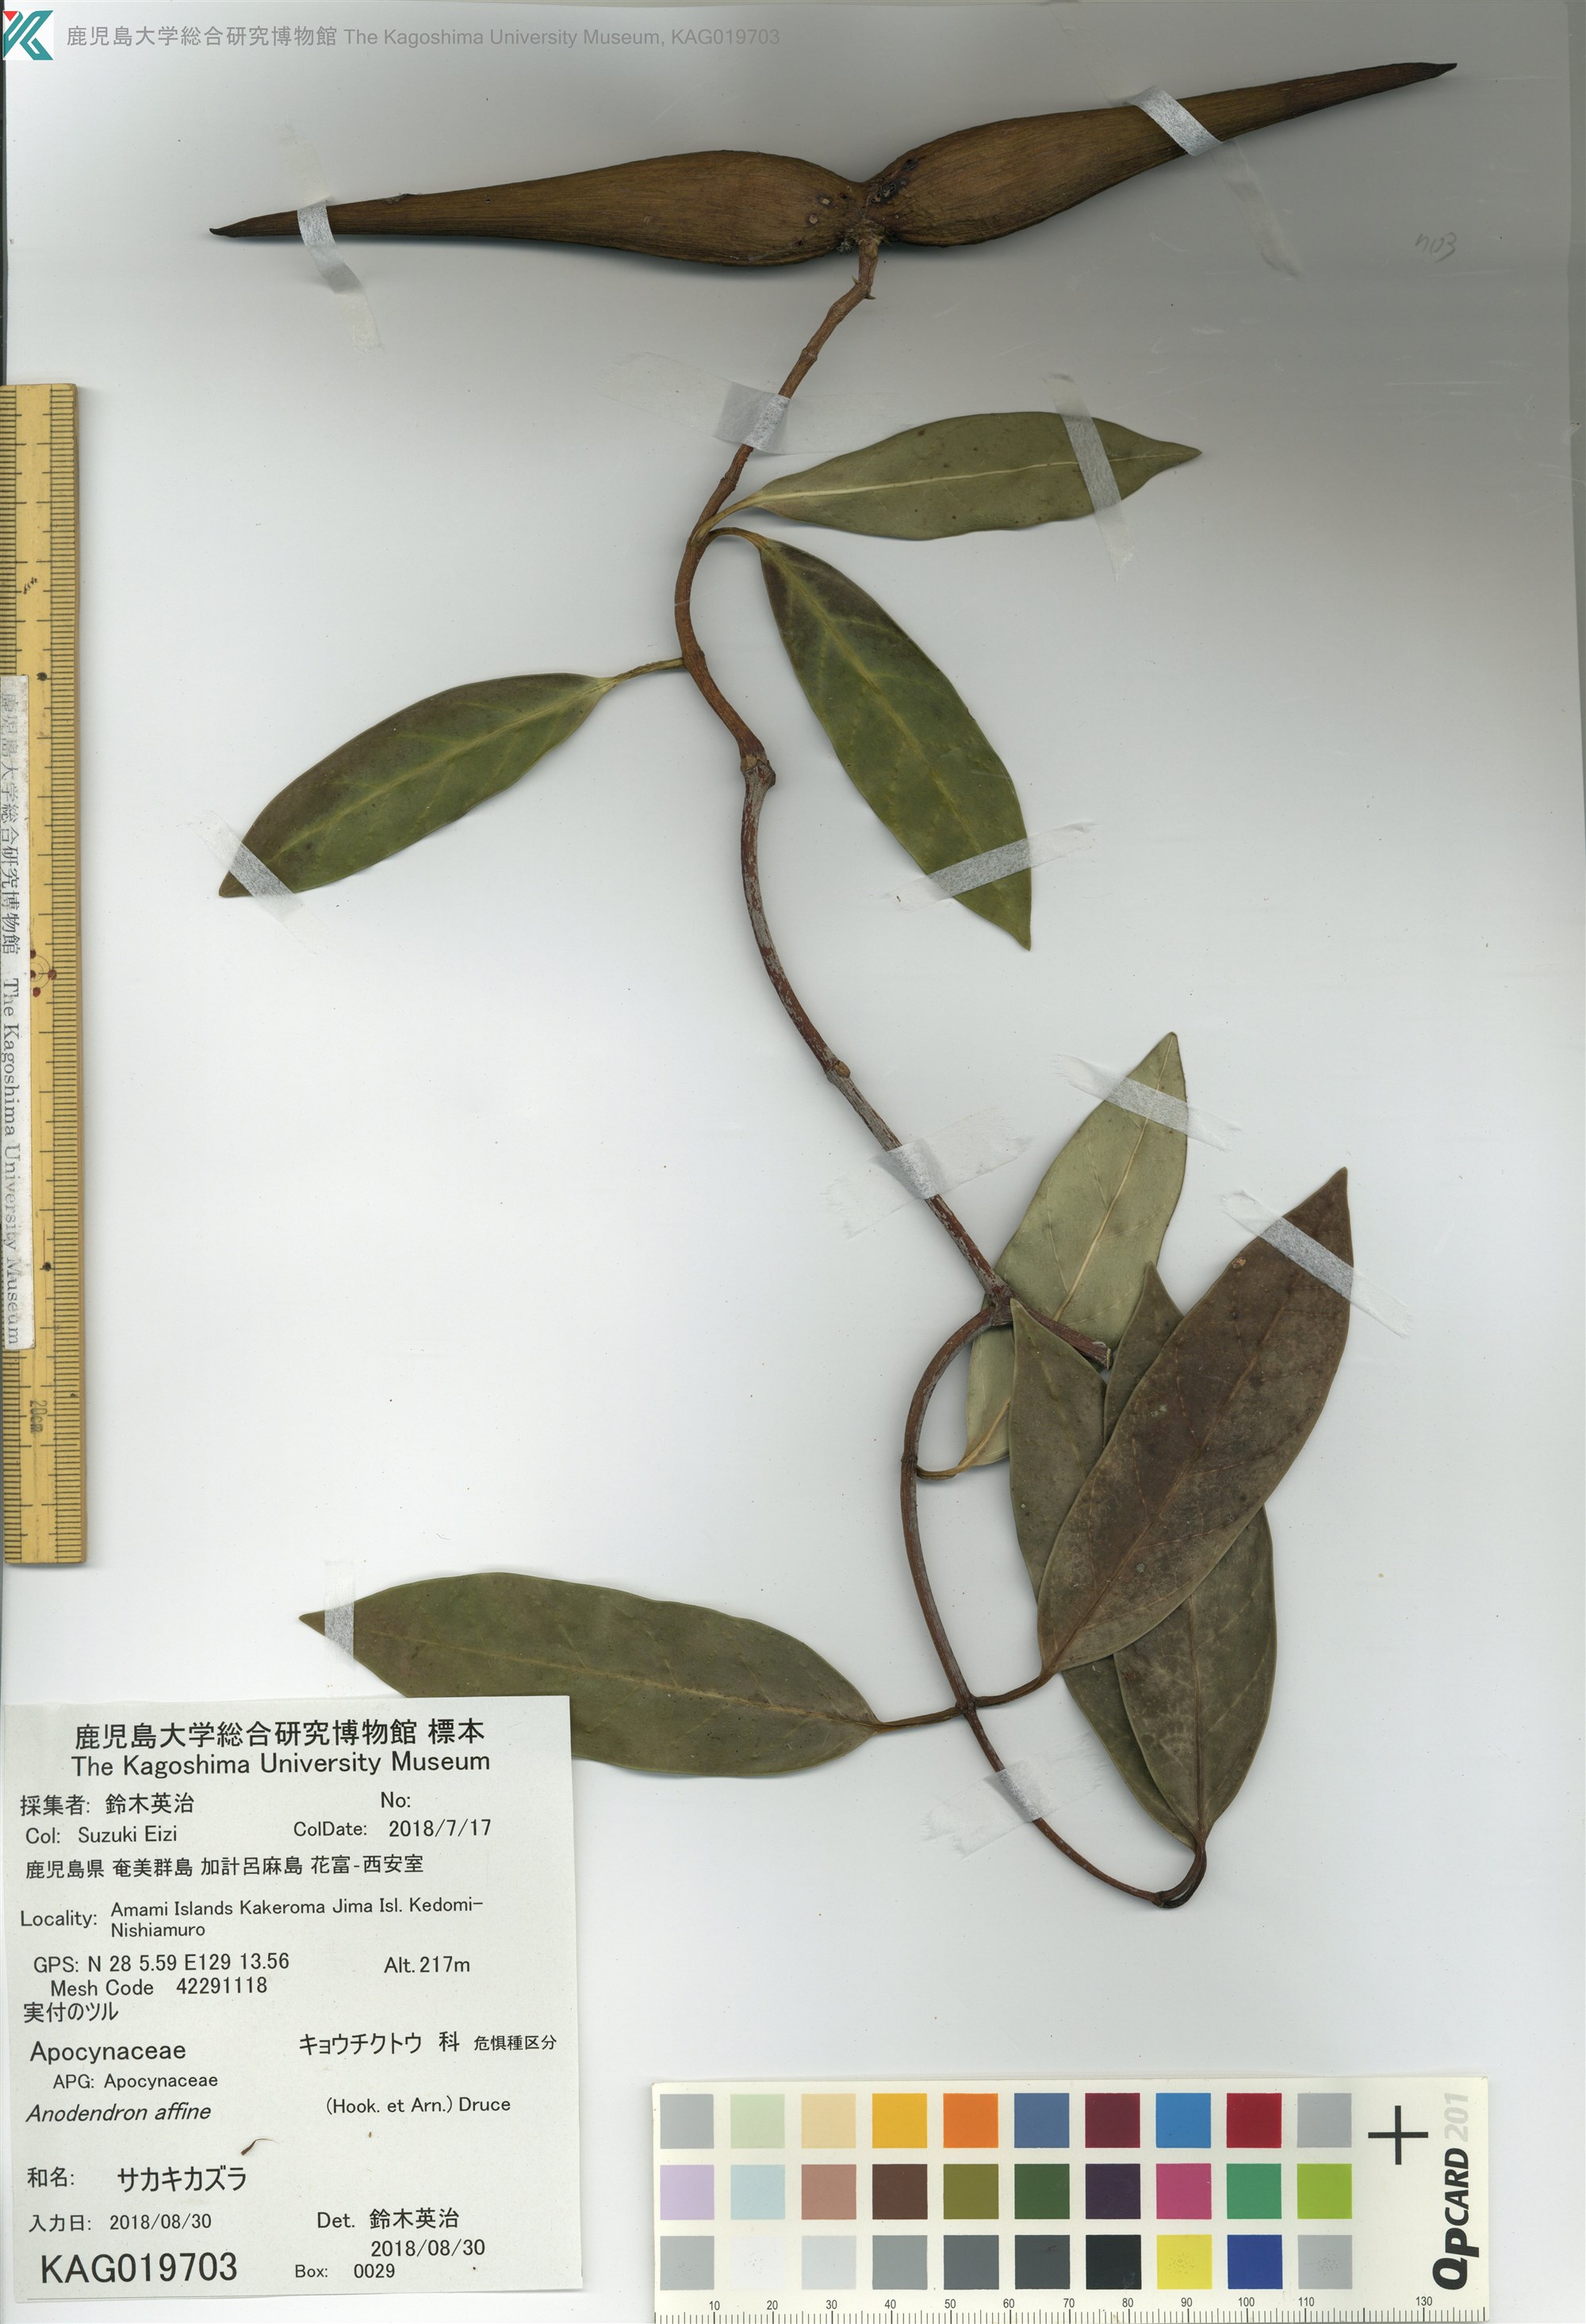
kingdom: Plantae
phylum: Tracheophyta
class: Magnoliopsida
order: Gentianales
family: Apocynaceae
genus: Anodendron
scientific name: Anodendron affine
